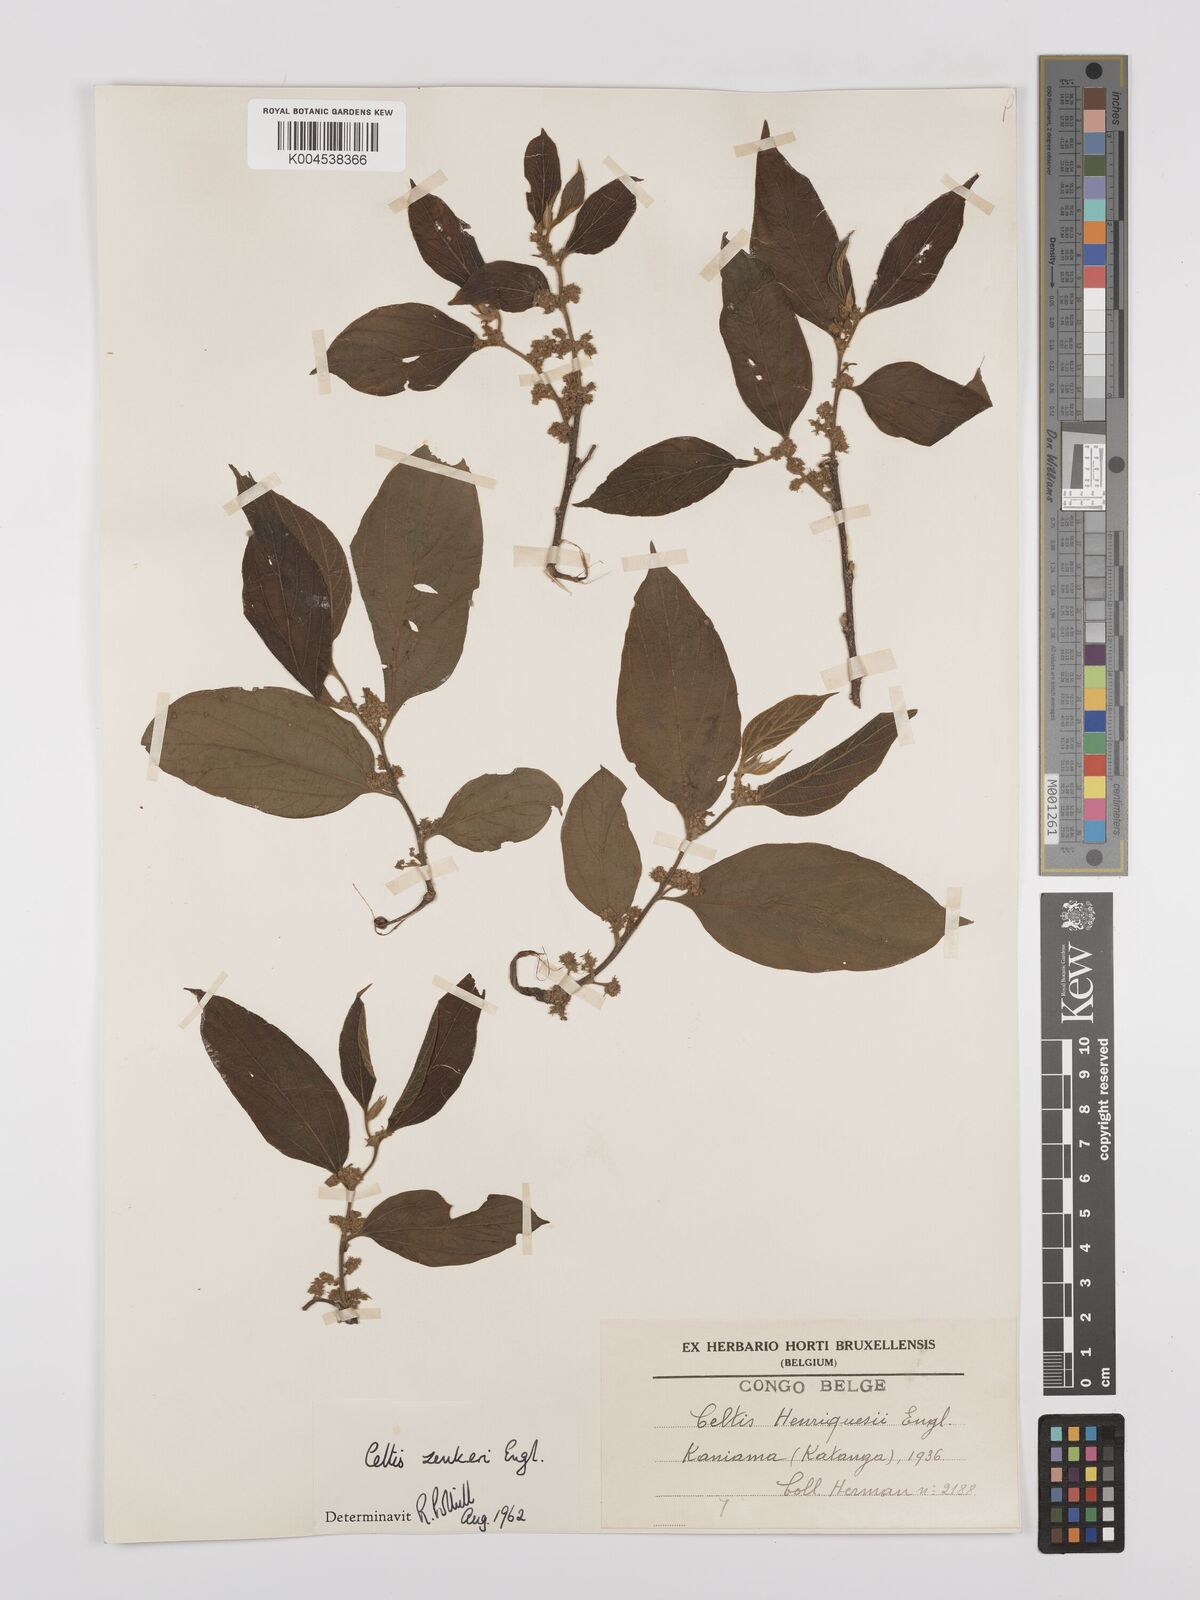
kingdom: Plantae
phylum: Tracheophyta
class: Magnoliopsida
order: Rosales
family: Cannabaceae
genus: Celtis
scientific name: Celtis zenkeri
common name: African celtis
